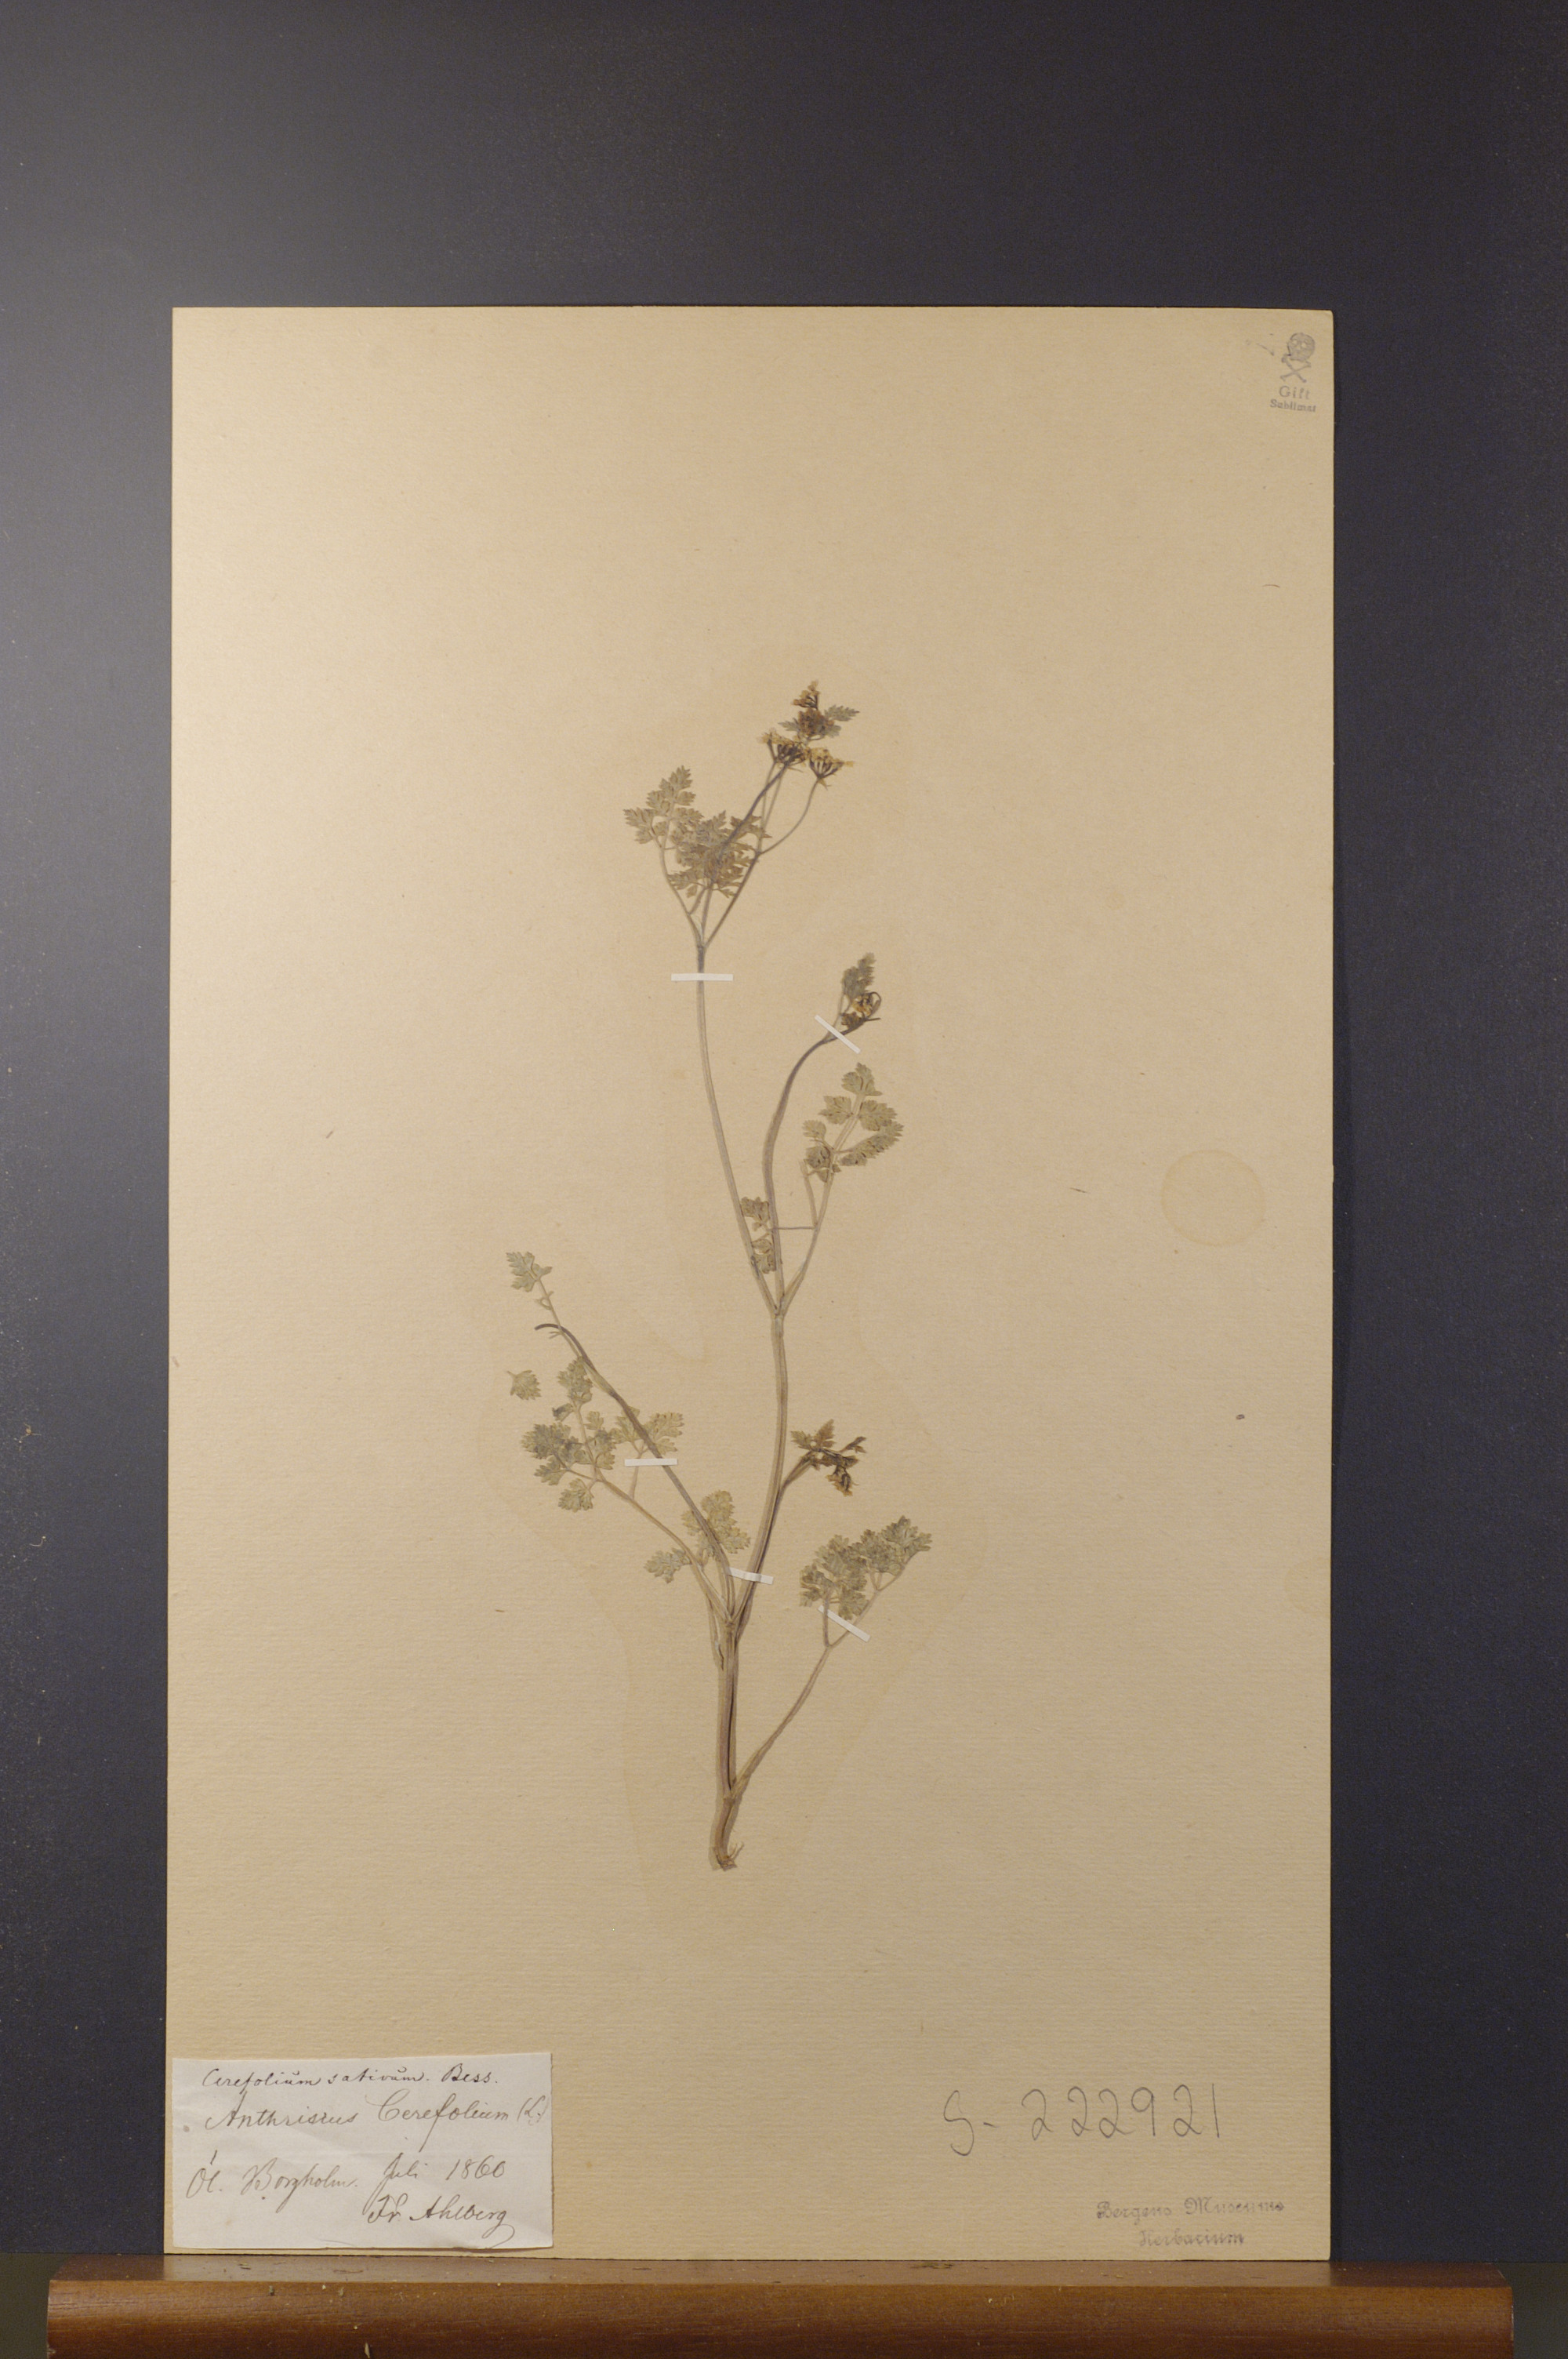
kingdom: Plantae
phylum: Tracheophyta
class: Magnoliopsida
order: Apiales
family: Apiaceae
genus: Anthriscus
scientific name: Anthriscus cerefolium
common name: Garden chervil
